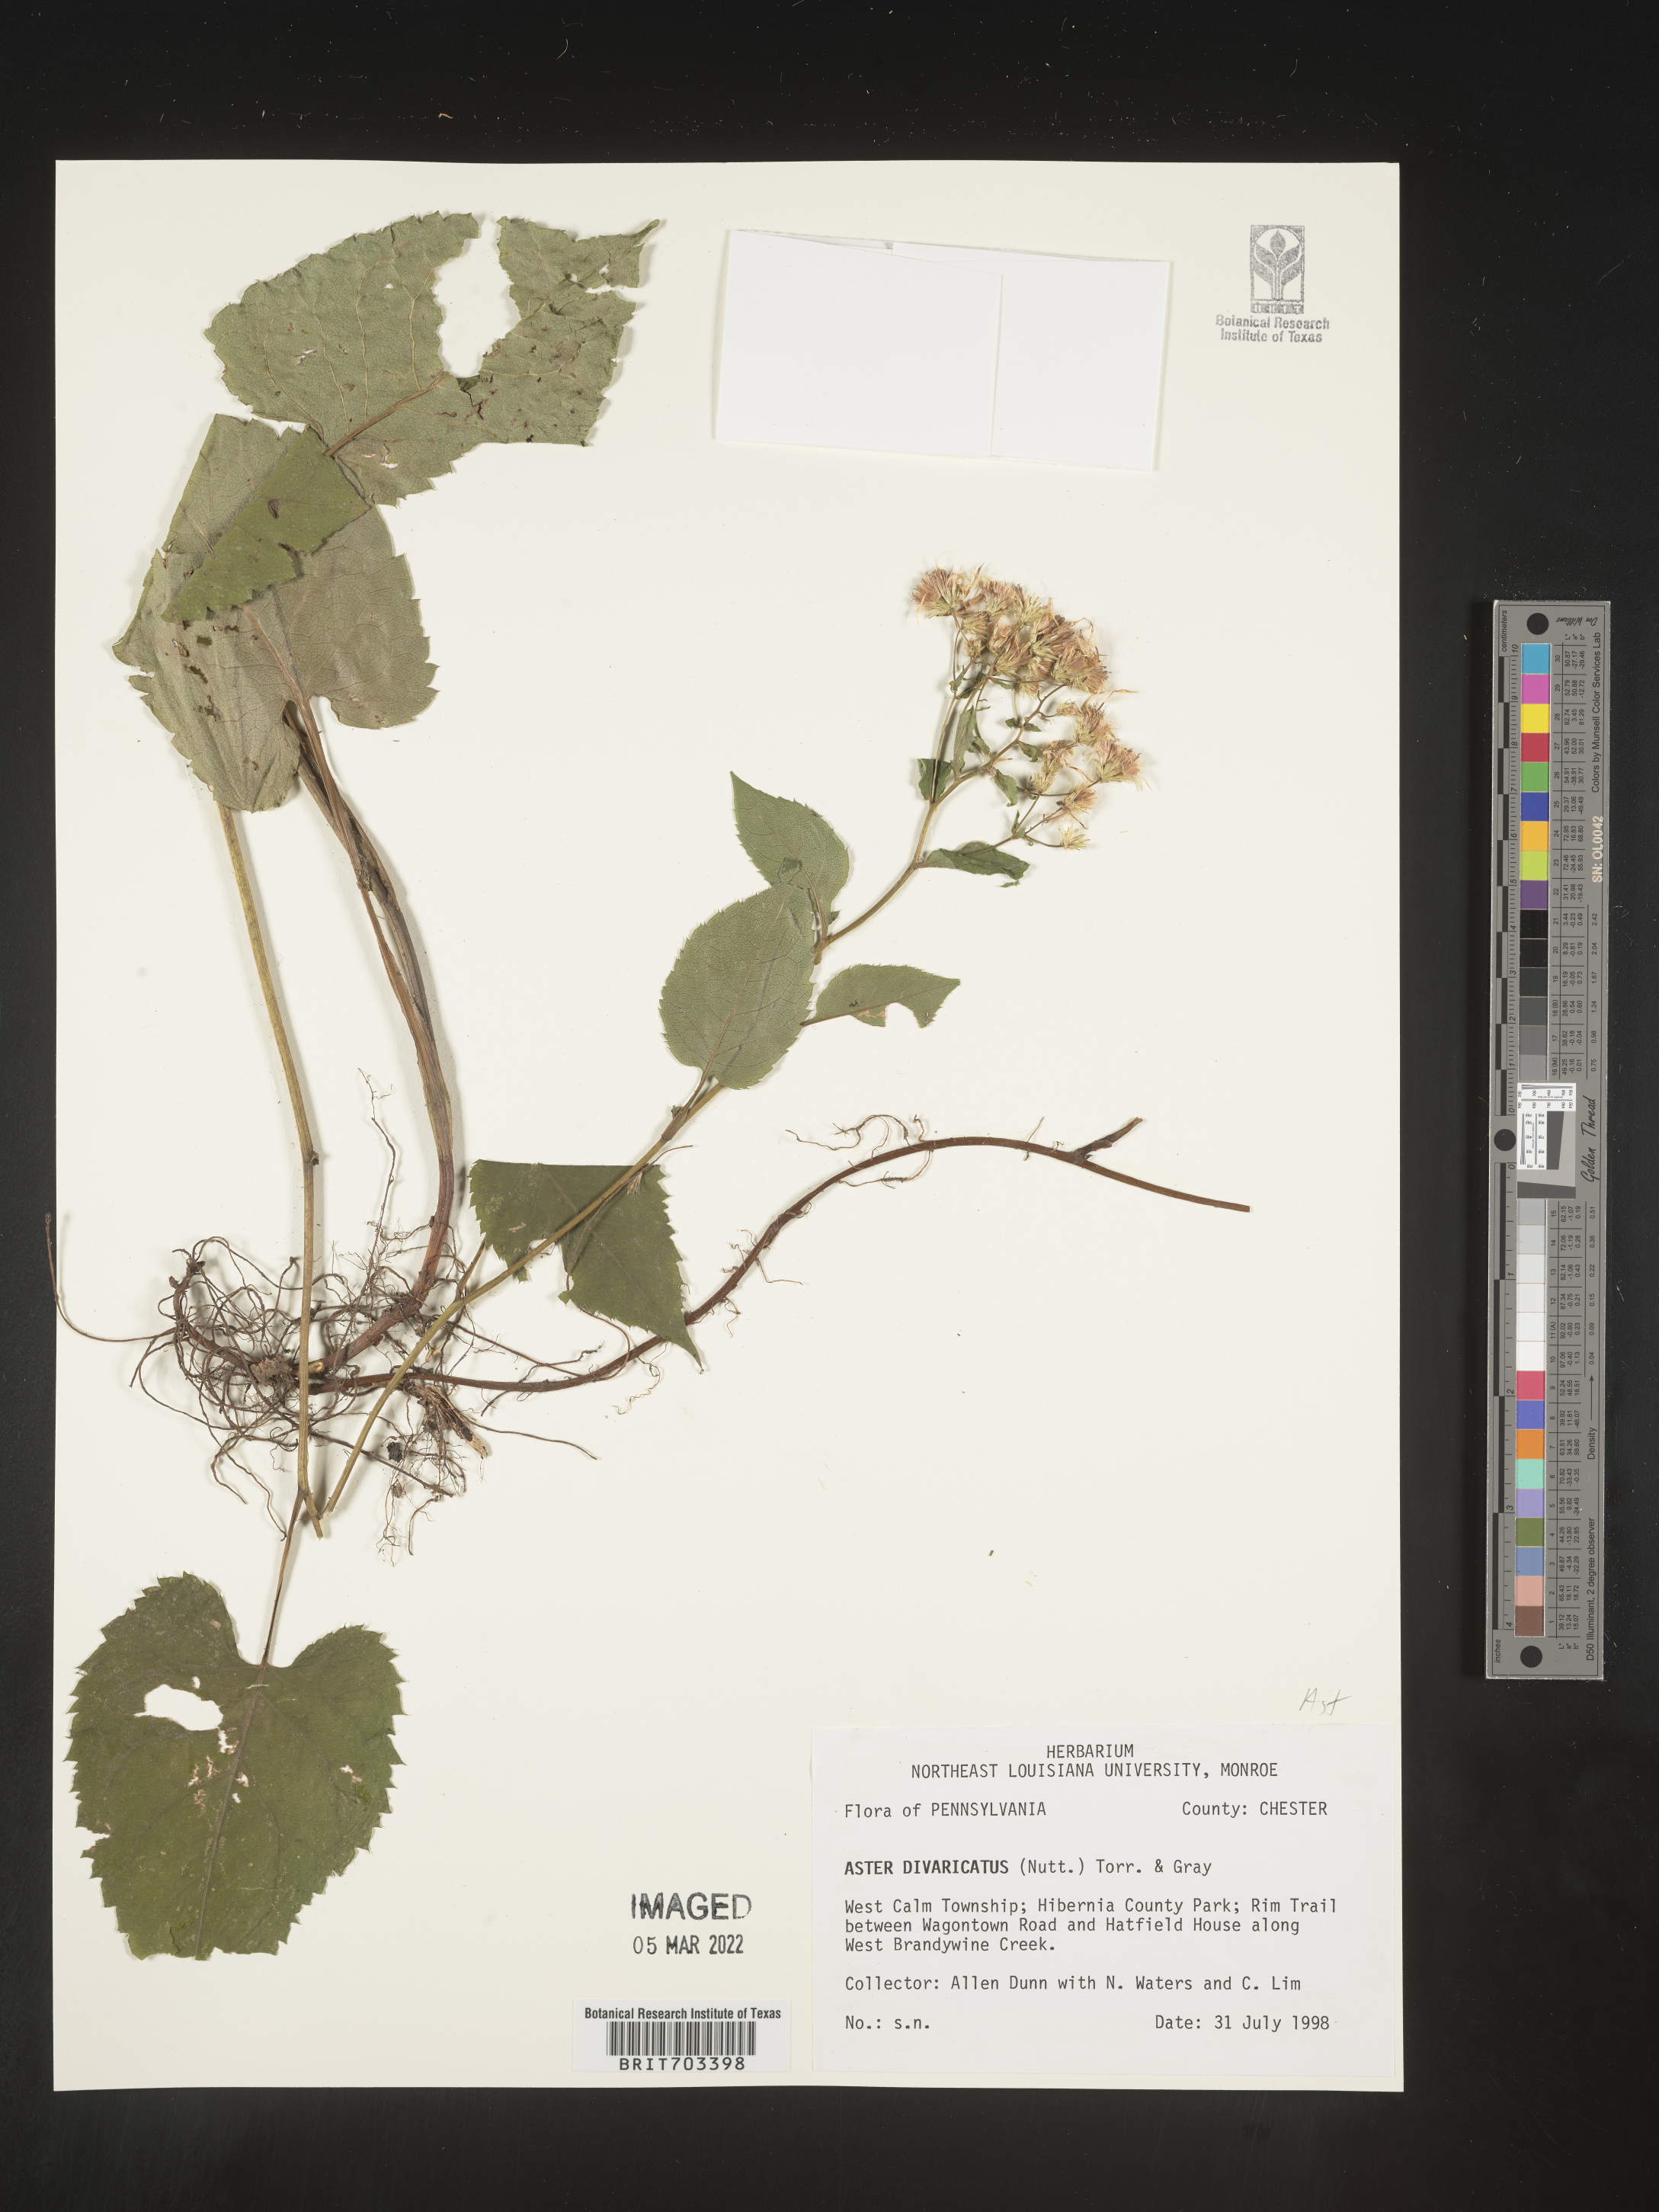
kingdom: Plantae
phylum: Tracheophyta
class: Magnoliopsida
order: Asterales
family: Asteraceae
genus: Eurybia
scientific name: Eurybia divaricata
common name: White wood aster
